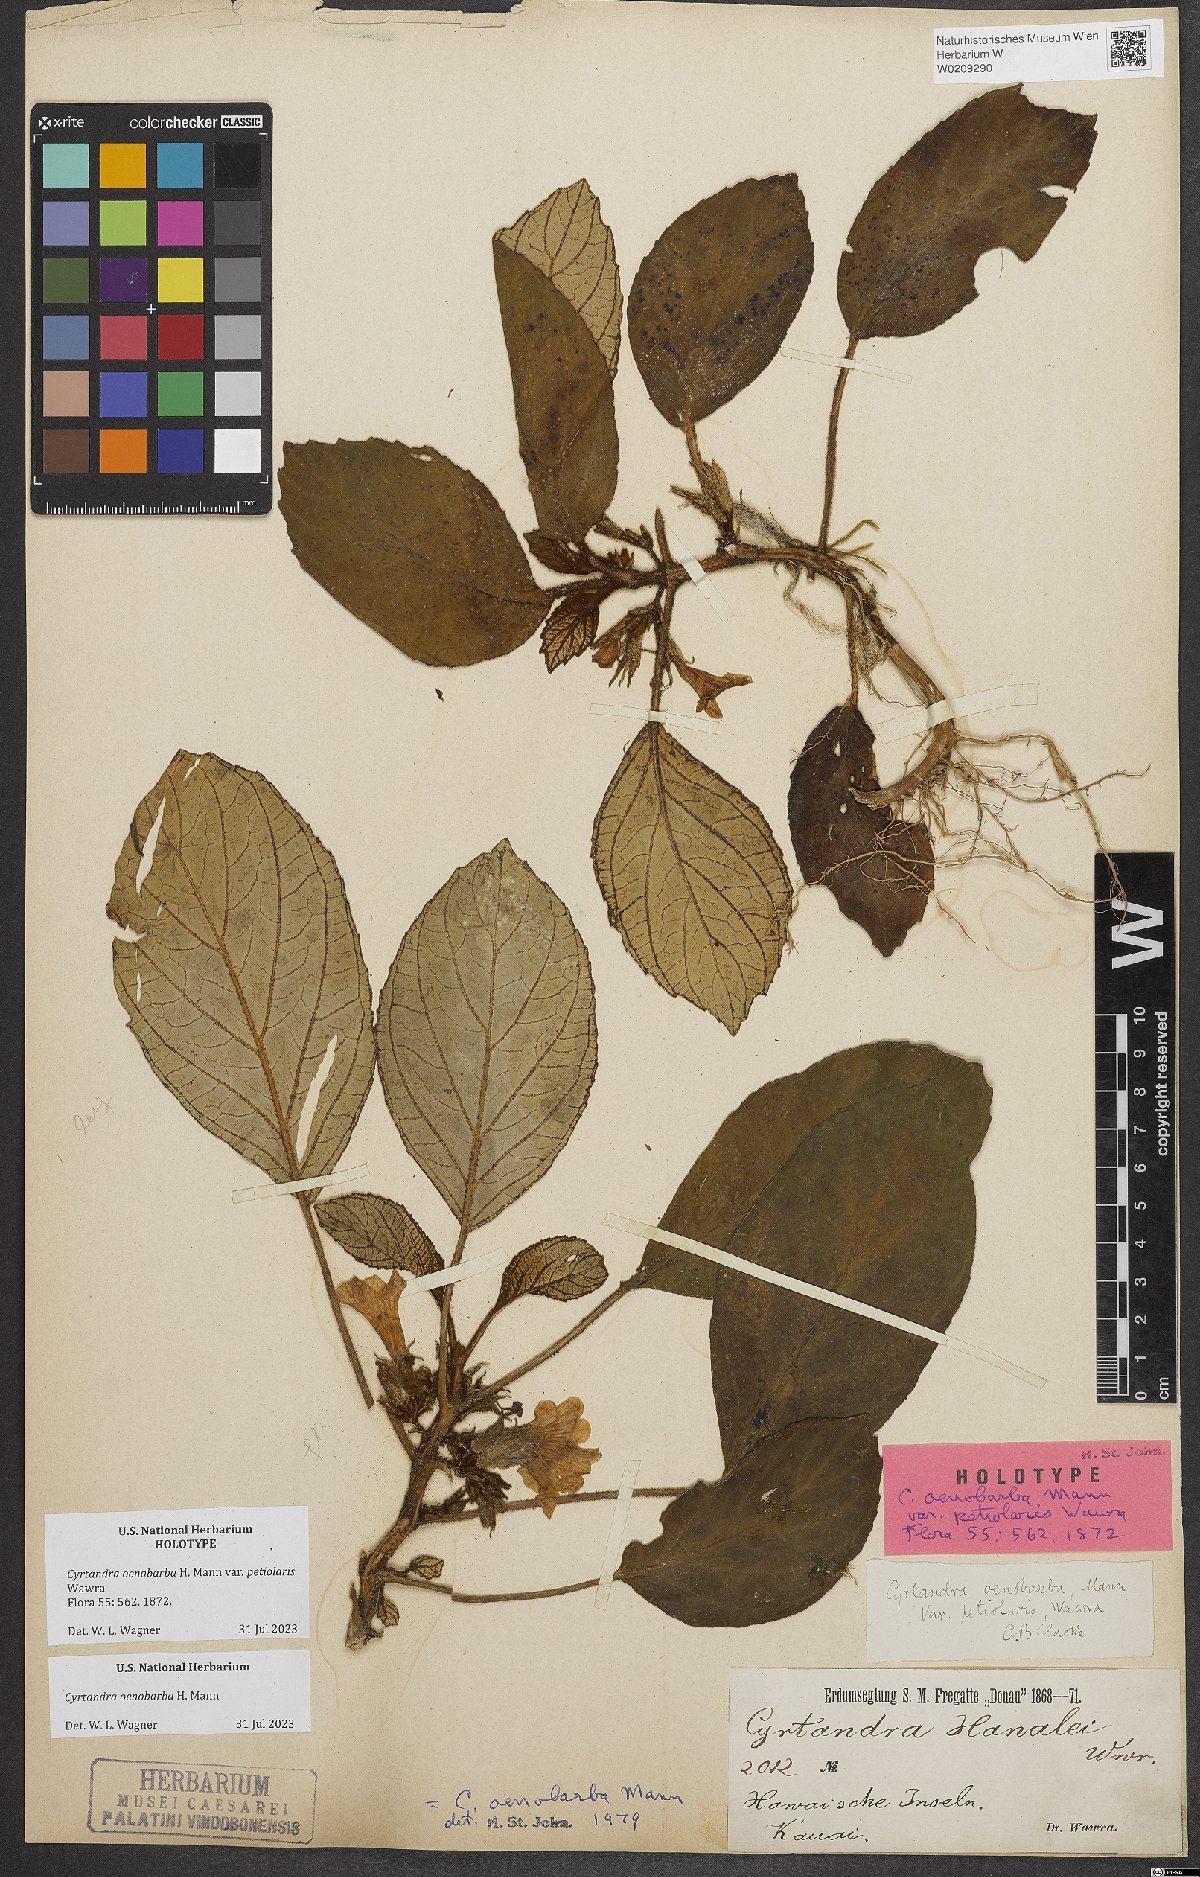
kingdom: Plantae
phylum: Tracheophyta
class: Magnoliopsida
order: Lamiales
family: Gesneriaceae
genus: Cyrtandra
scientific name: Cyrtandra oenobarba
